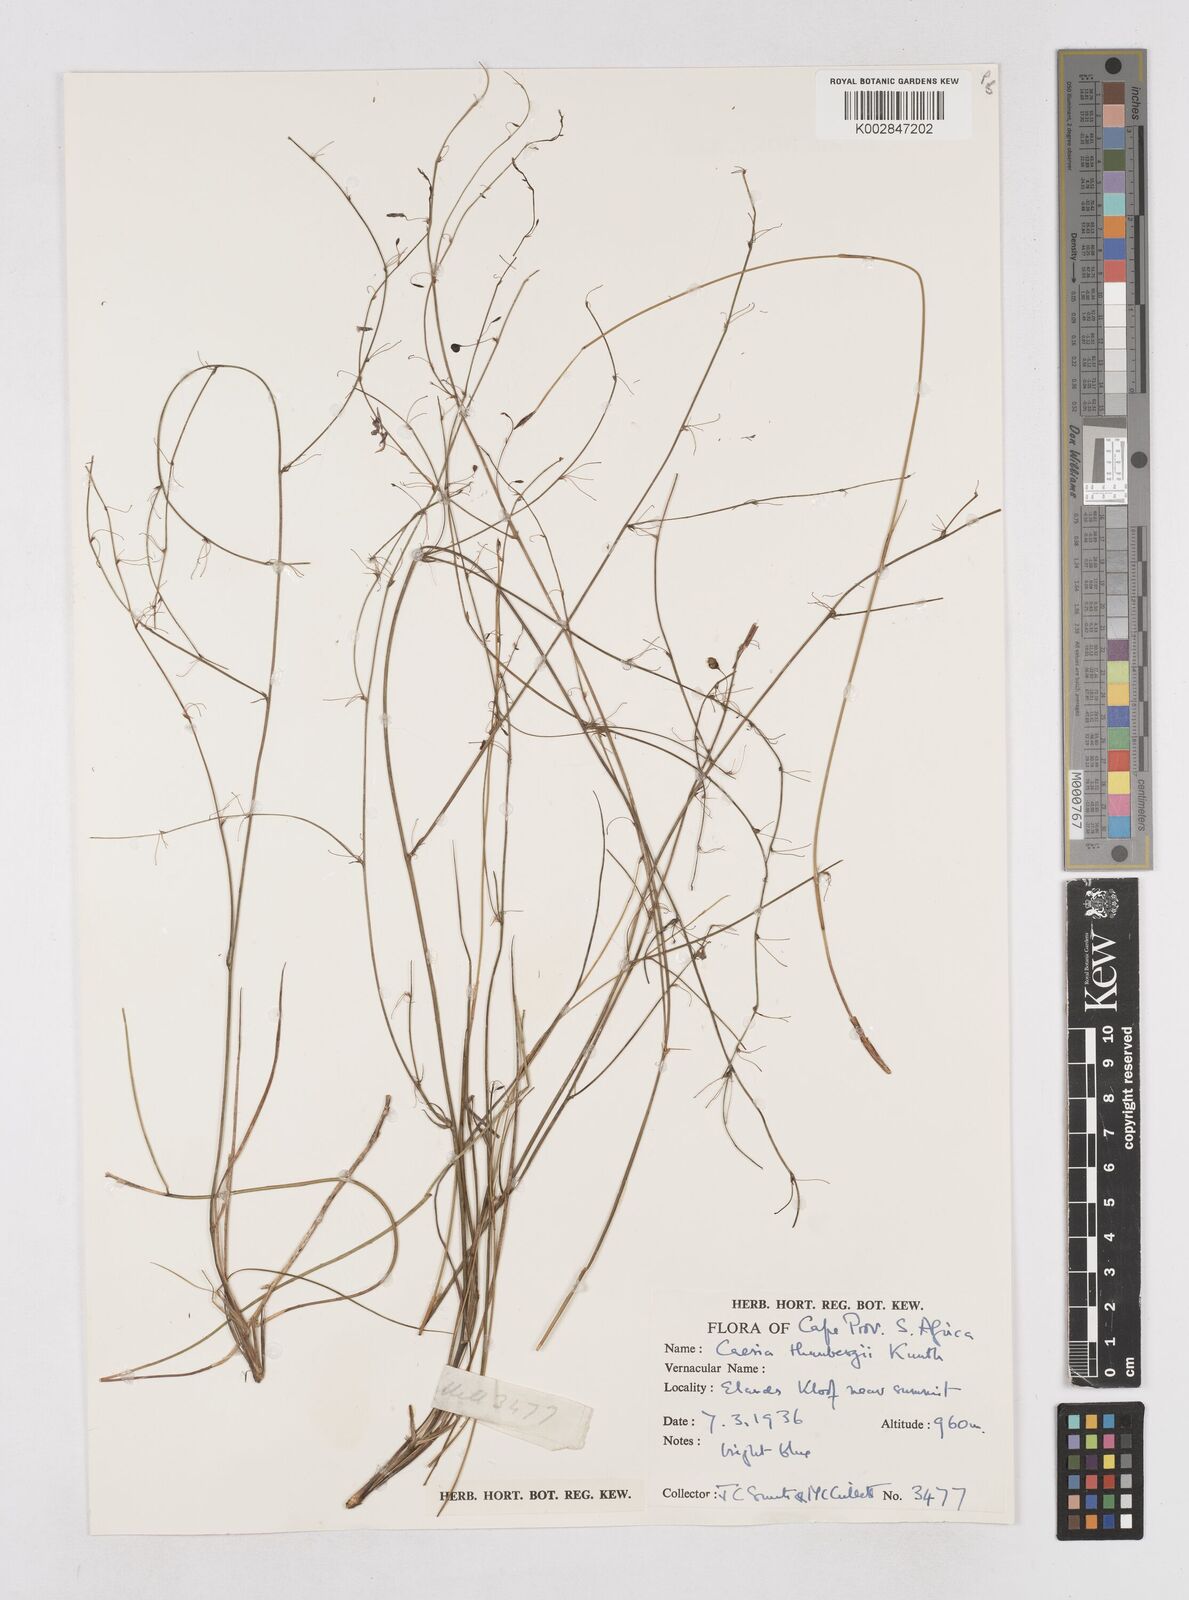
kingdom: Plantae
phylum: Tracheophyta
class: Liliopsida
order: Asparagales
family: Asphodelaceae
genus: Caesia
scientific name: Caesia contorta
